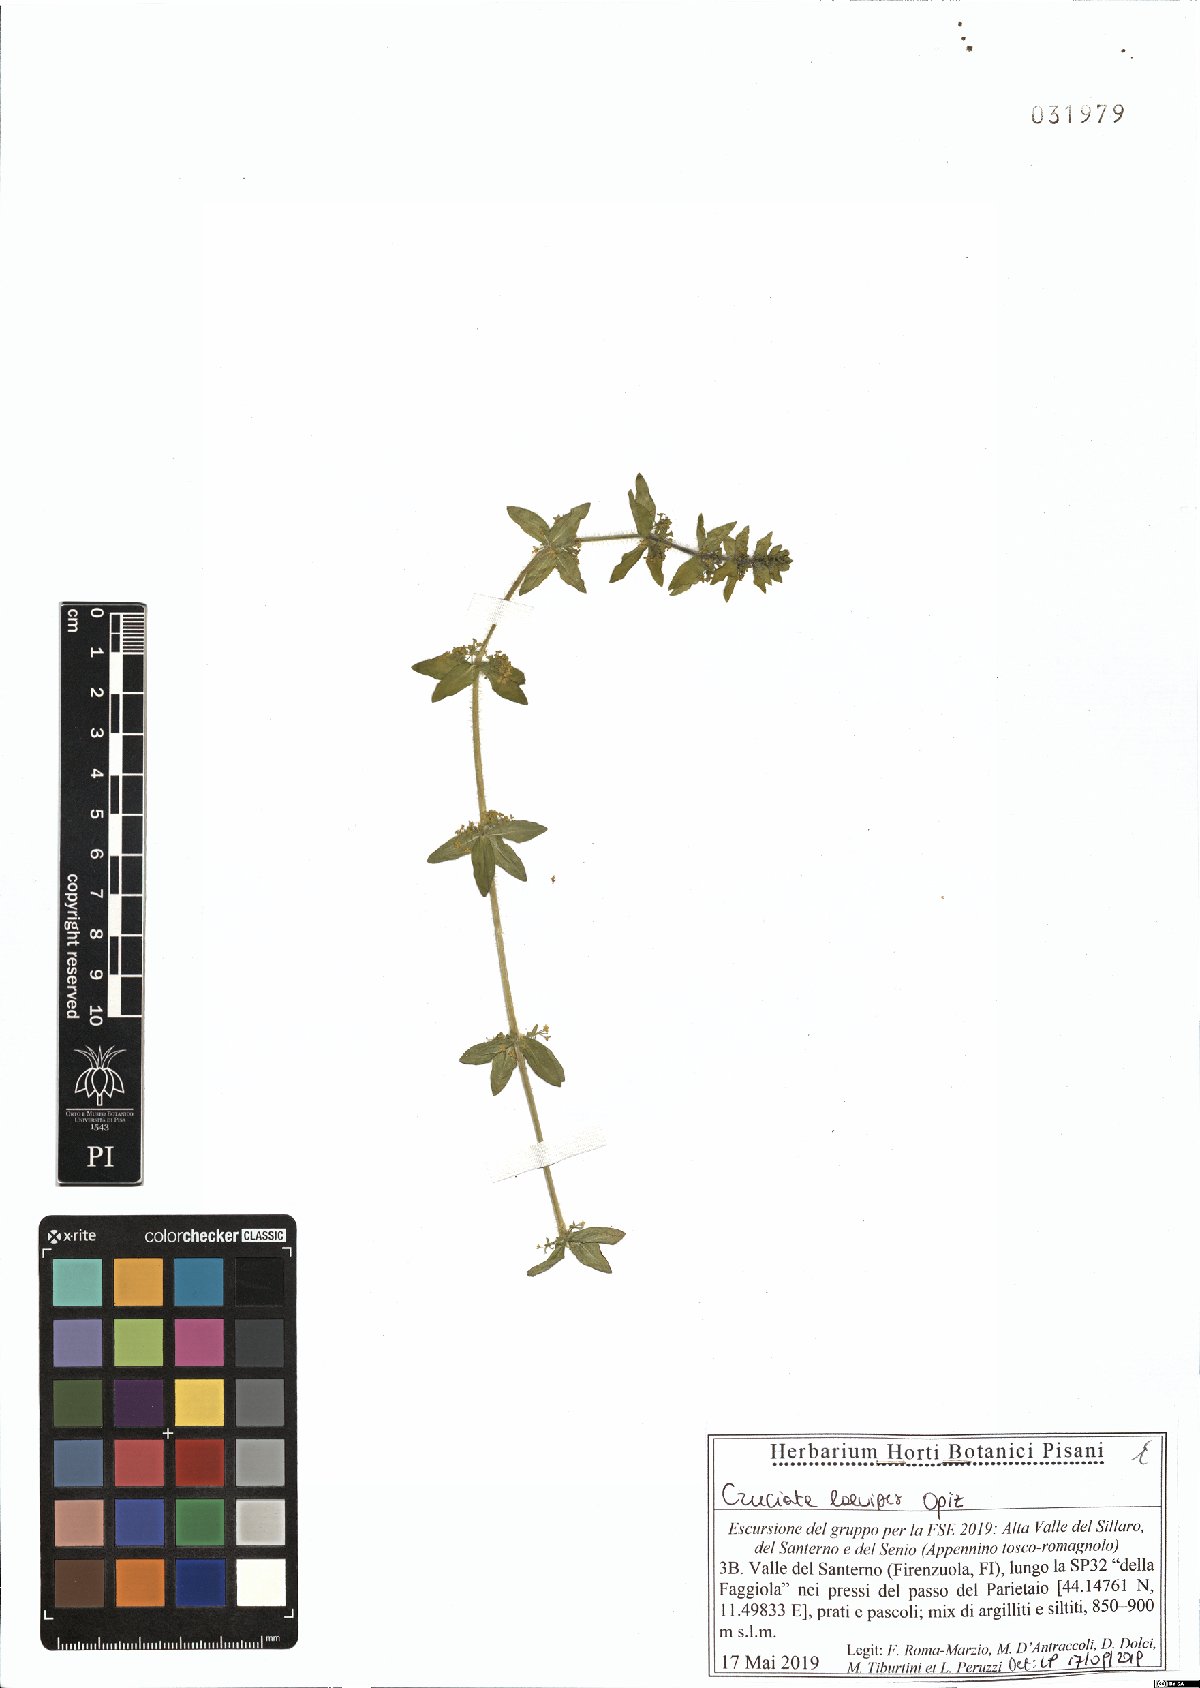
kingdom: Plantae
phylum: Tracheophyta
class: Magnoliopsida
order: Gentianales
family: Rubiaceae
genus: Cruciata
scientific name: Cruciata laevipes
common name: Crosswort
